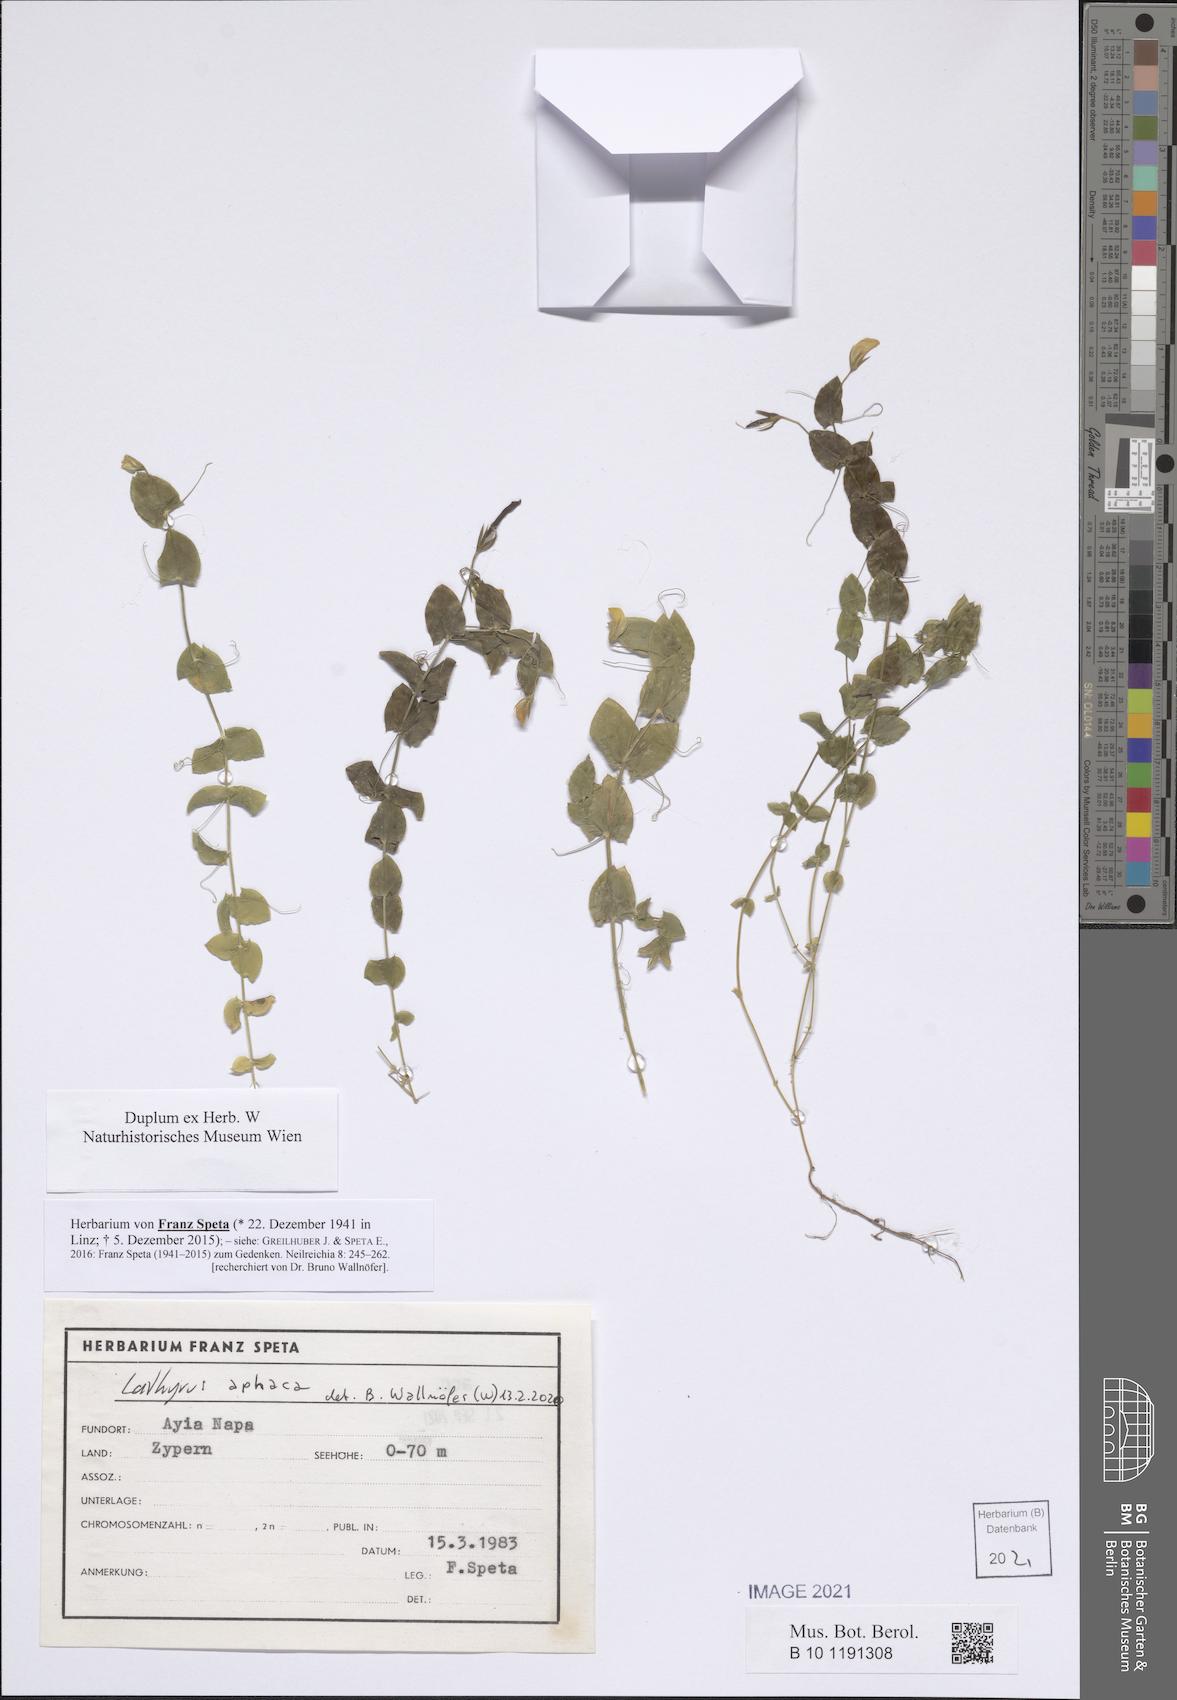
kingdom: Plantae
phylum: Tracheophyta
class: Magnoliopsida
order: Fabales
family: Fabaceae
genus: Lathyrus
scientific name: Lathyrus aphaca
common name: Yellow vetchling
